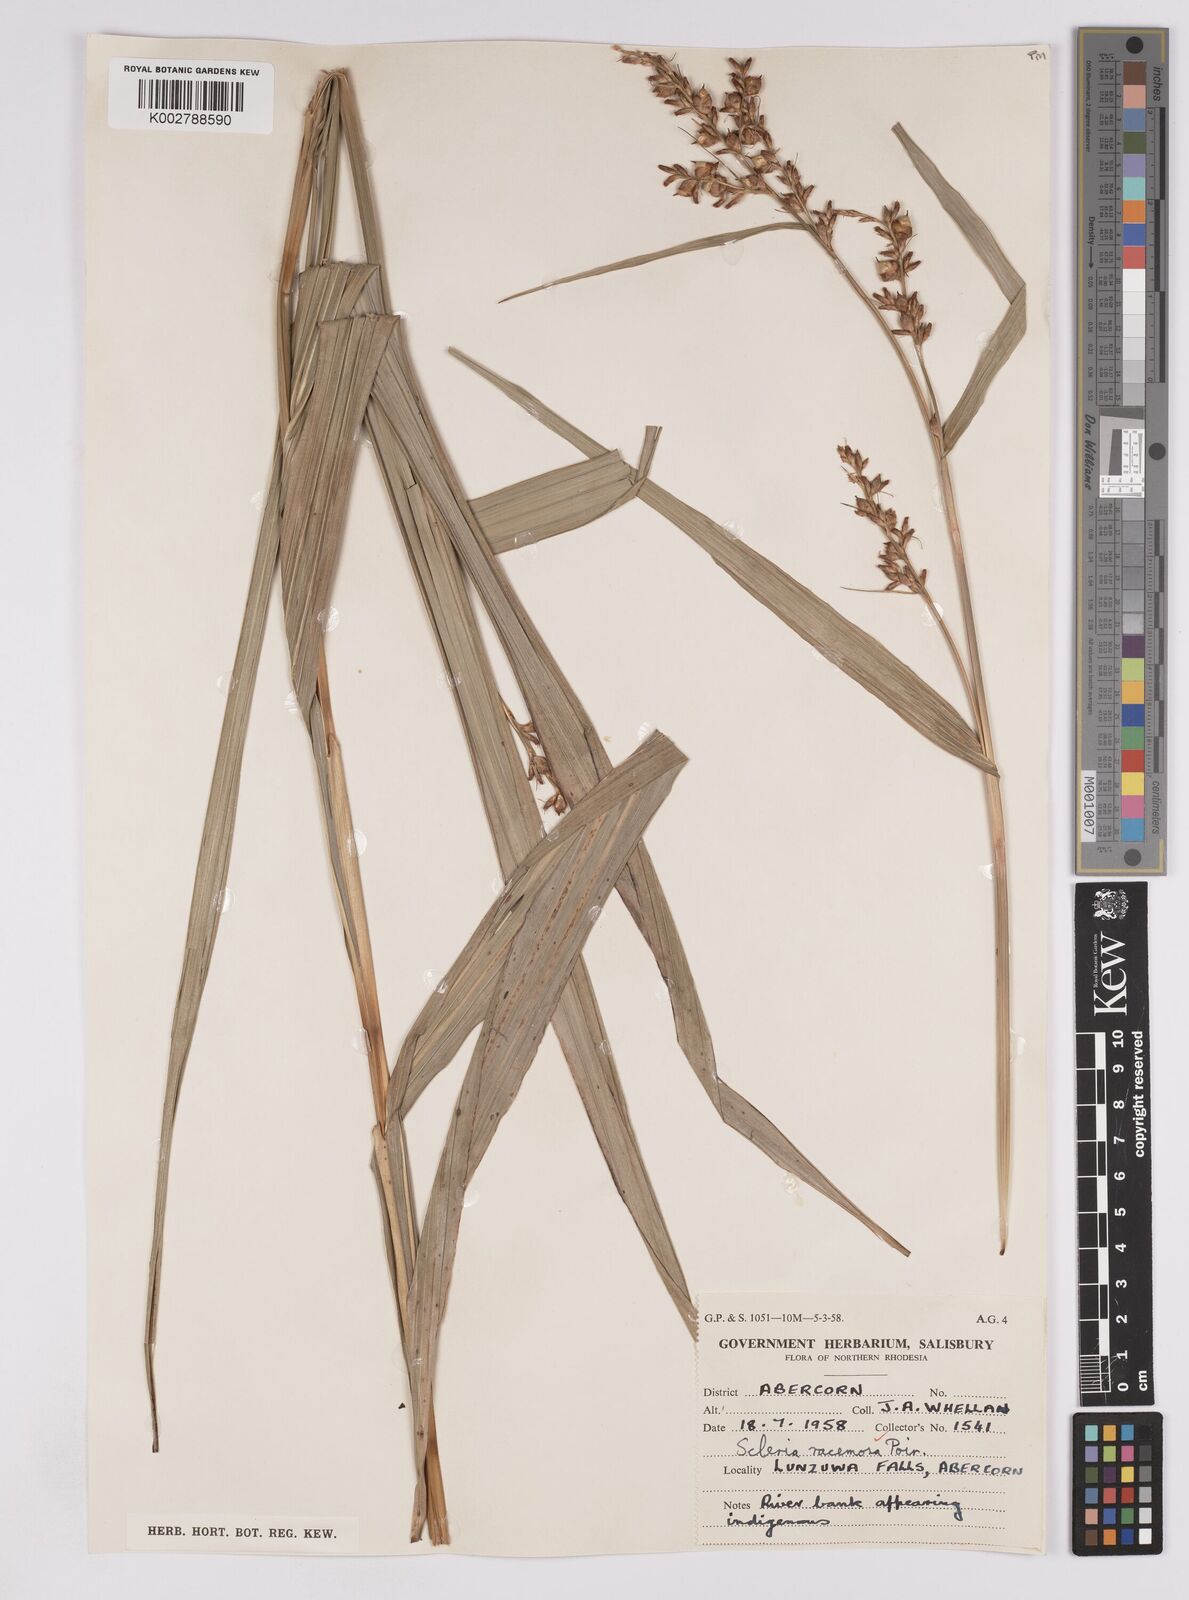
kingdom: Plantae
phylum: Tracheophyta
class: Liliopsida
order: Poales
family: Cyperaceae
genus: Scleria
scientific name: Scleria racemosa
